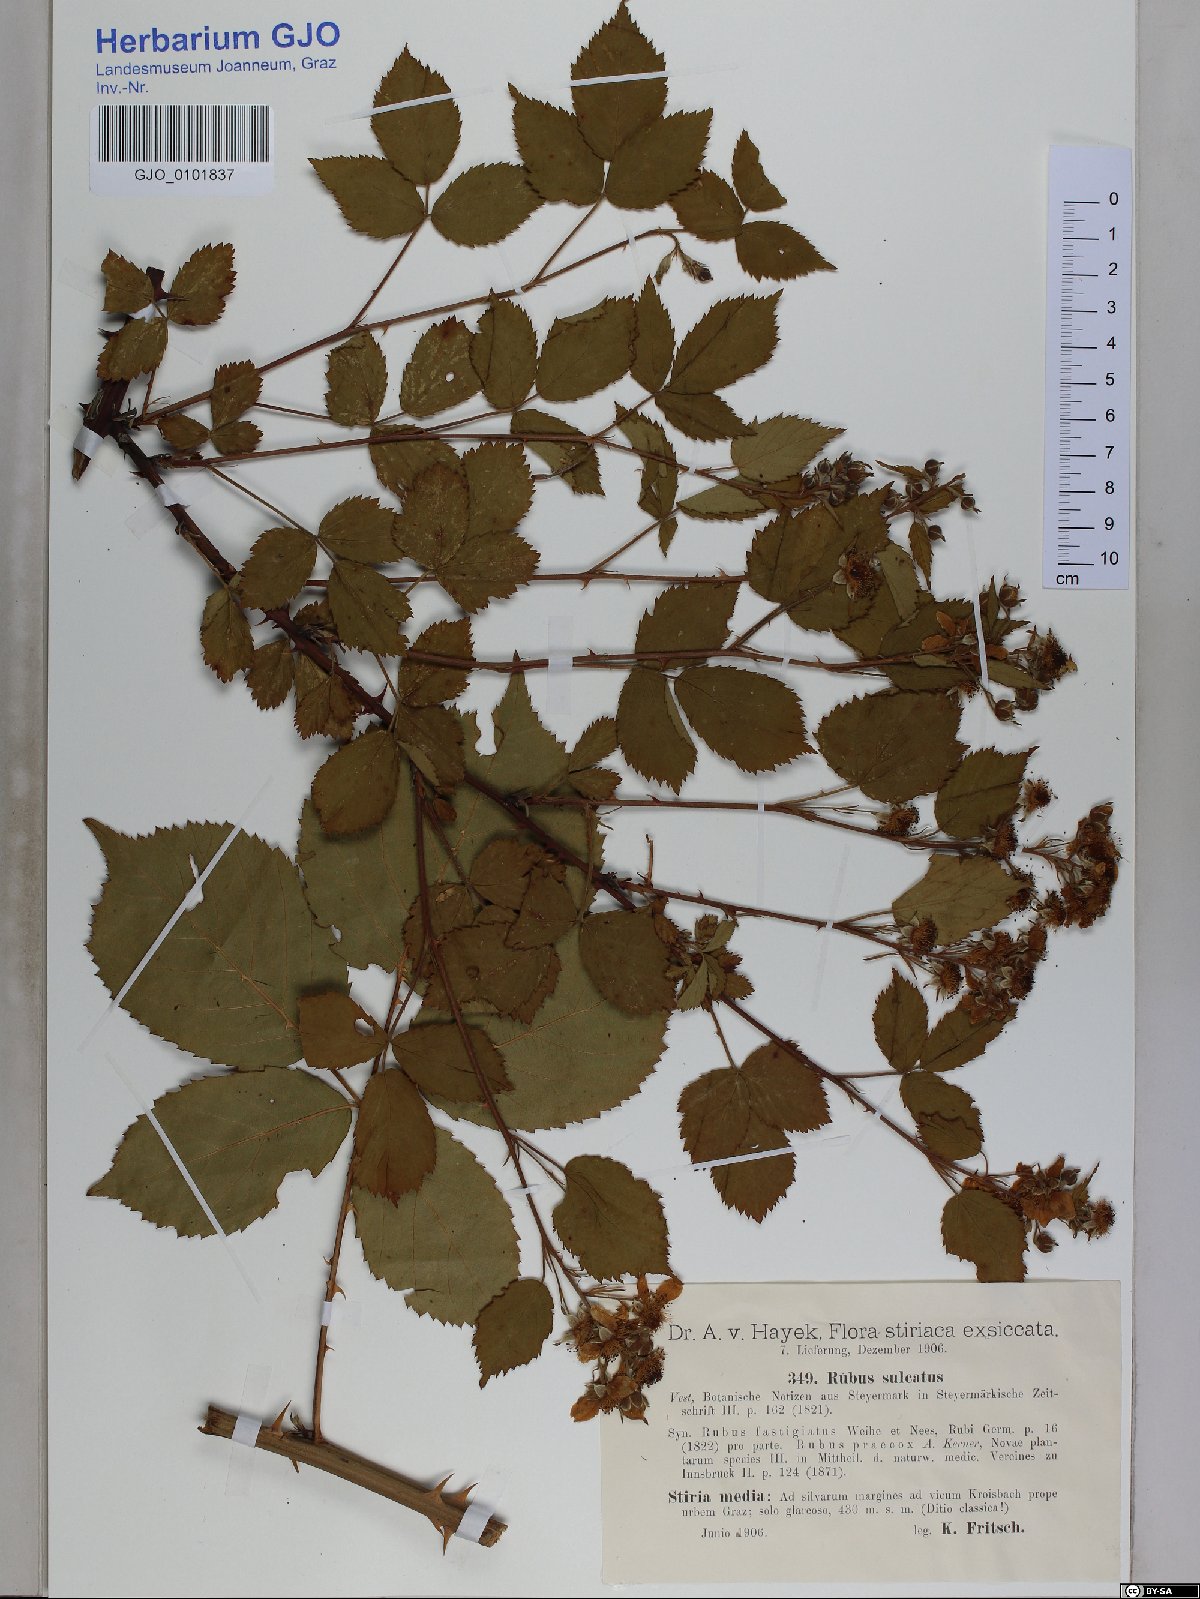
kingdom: Plantae
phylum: Tracheophyta
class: Magnoliopsida
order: Rosales
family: Rosaceae
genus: Rubus
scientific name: Rubus sulcatus
